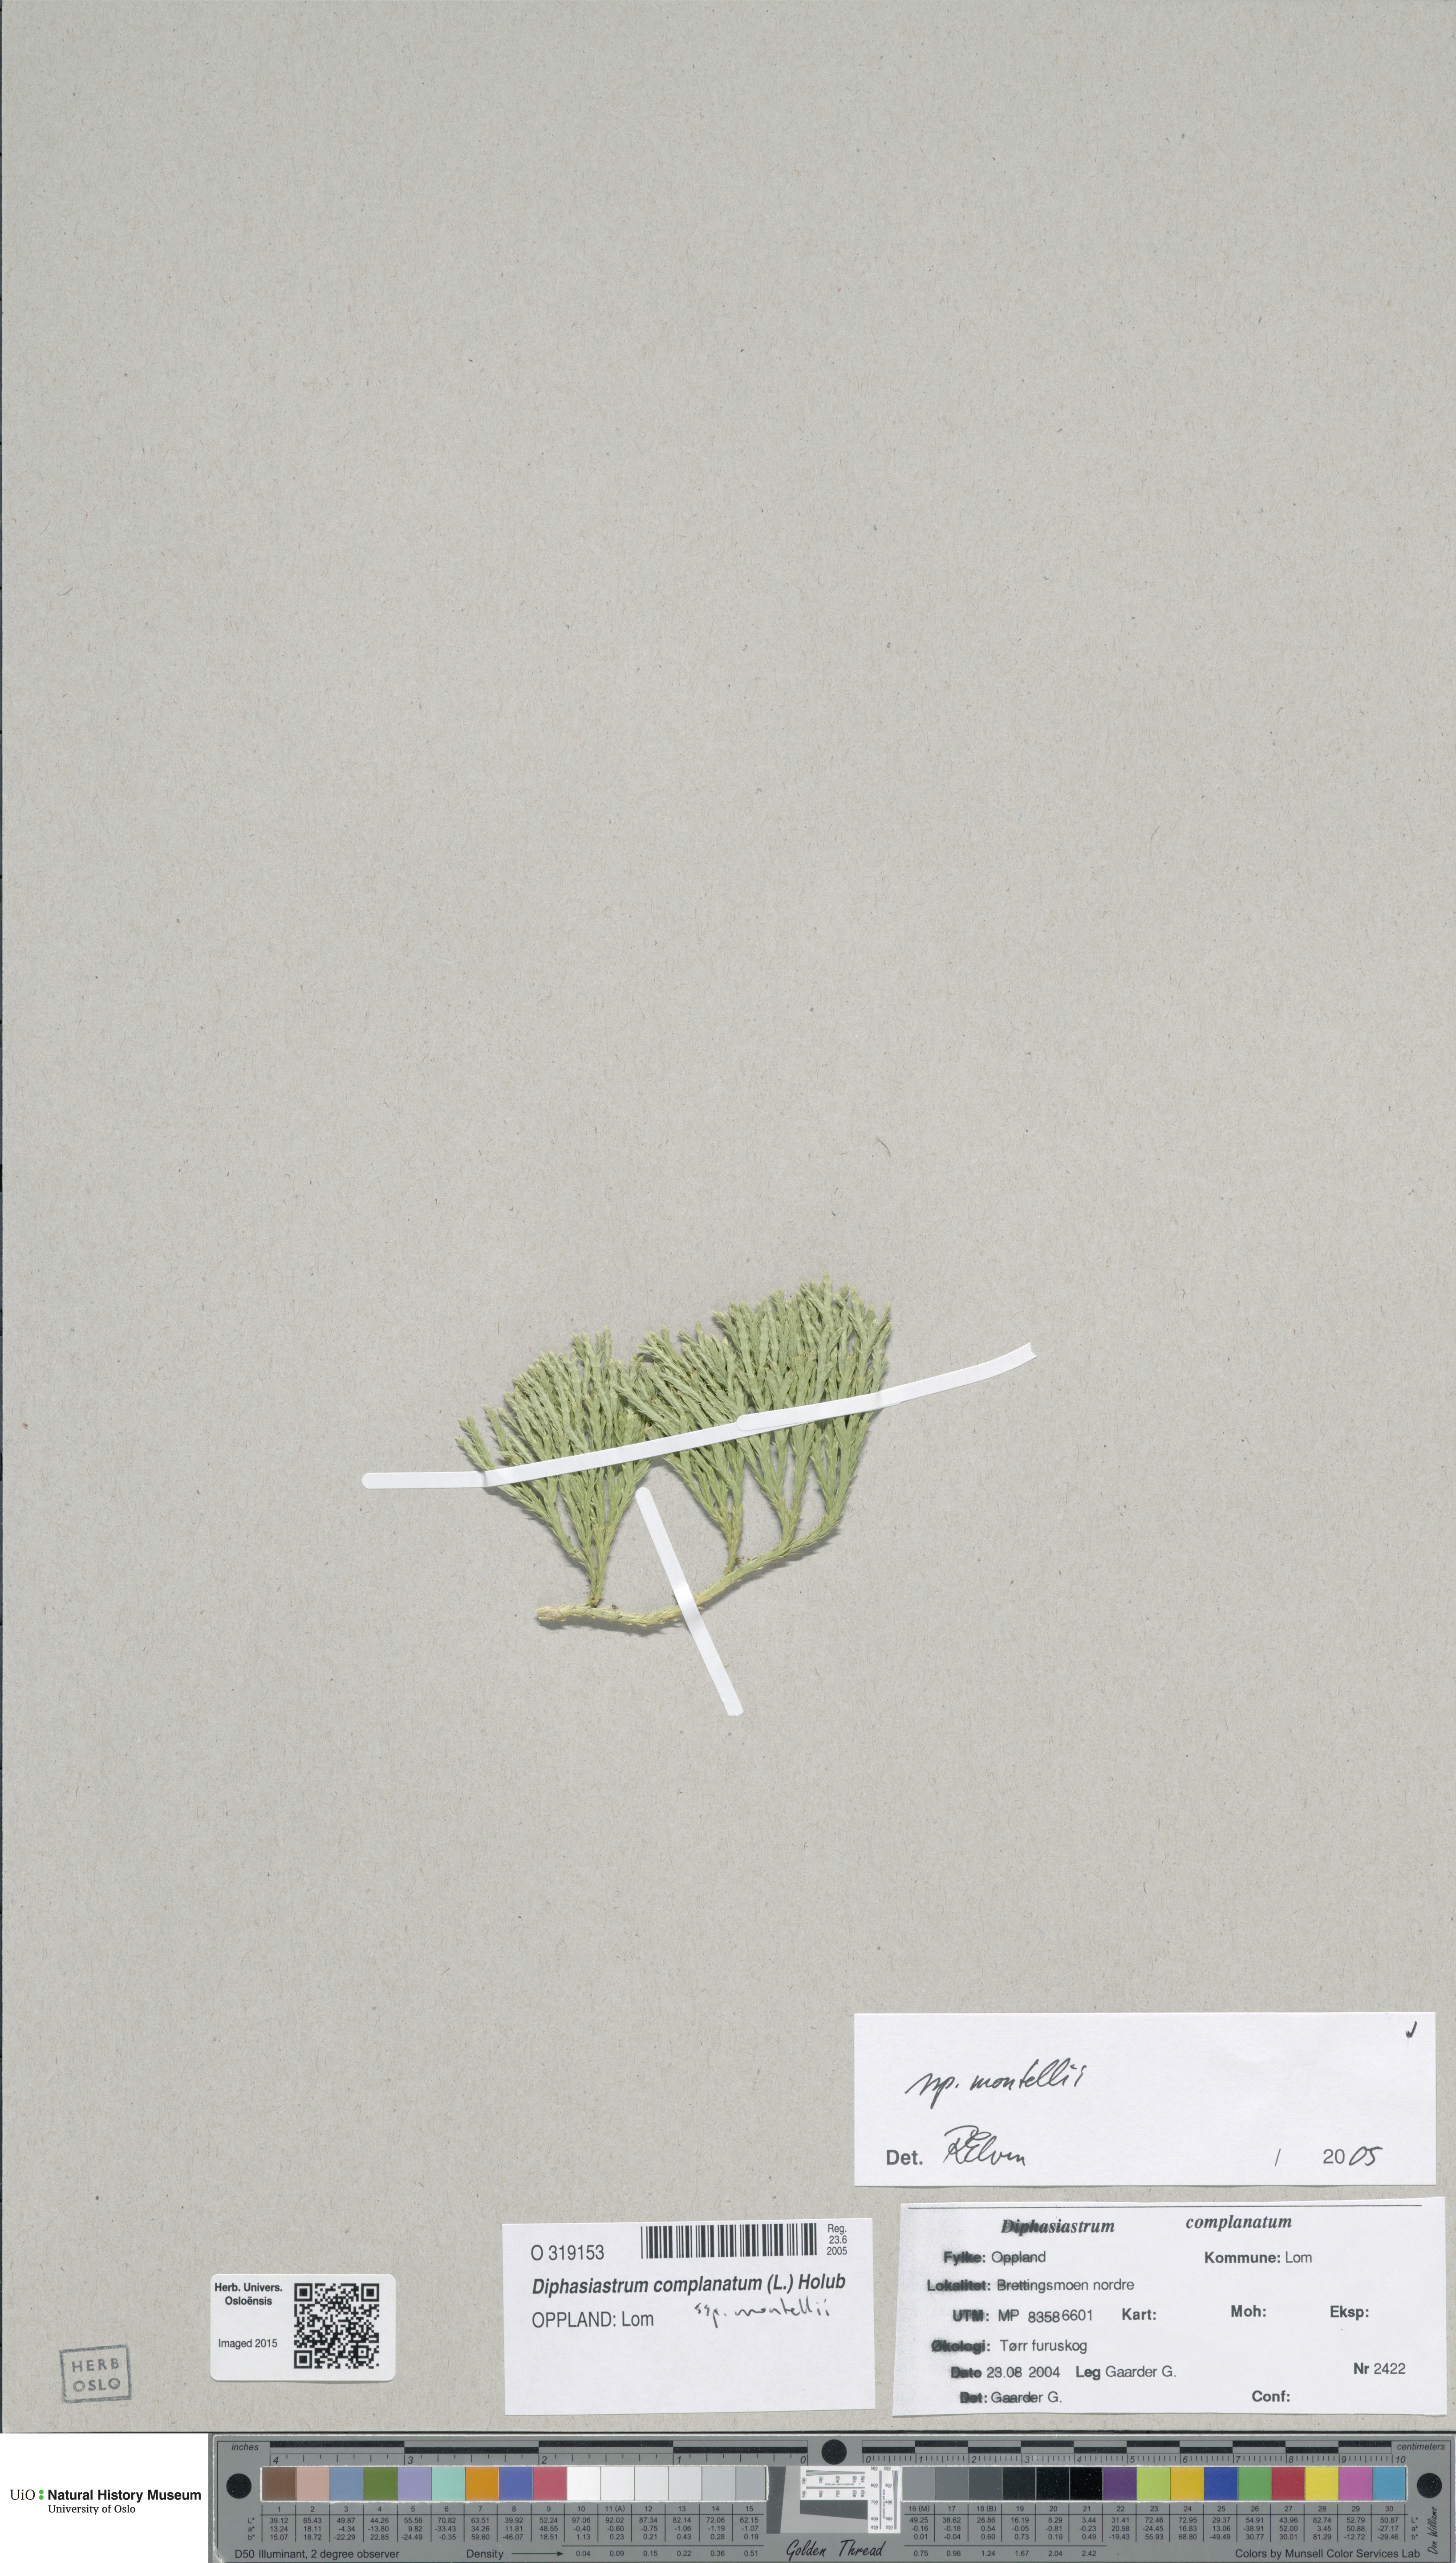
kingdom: Plantae
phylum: Tracheophyta
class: Lycopodiopsida
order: Lycopodiales
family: Lycopodiaceae
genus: Diphasiastrum
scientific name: Diphasiastrum complanatum
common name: Northern running-pine
